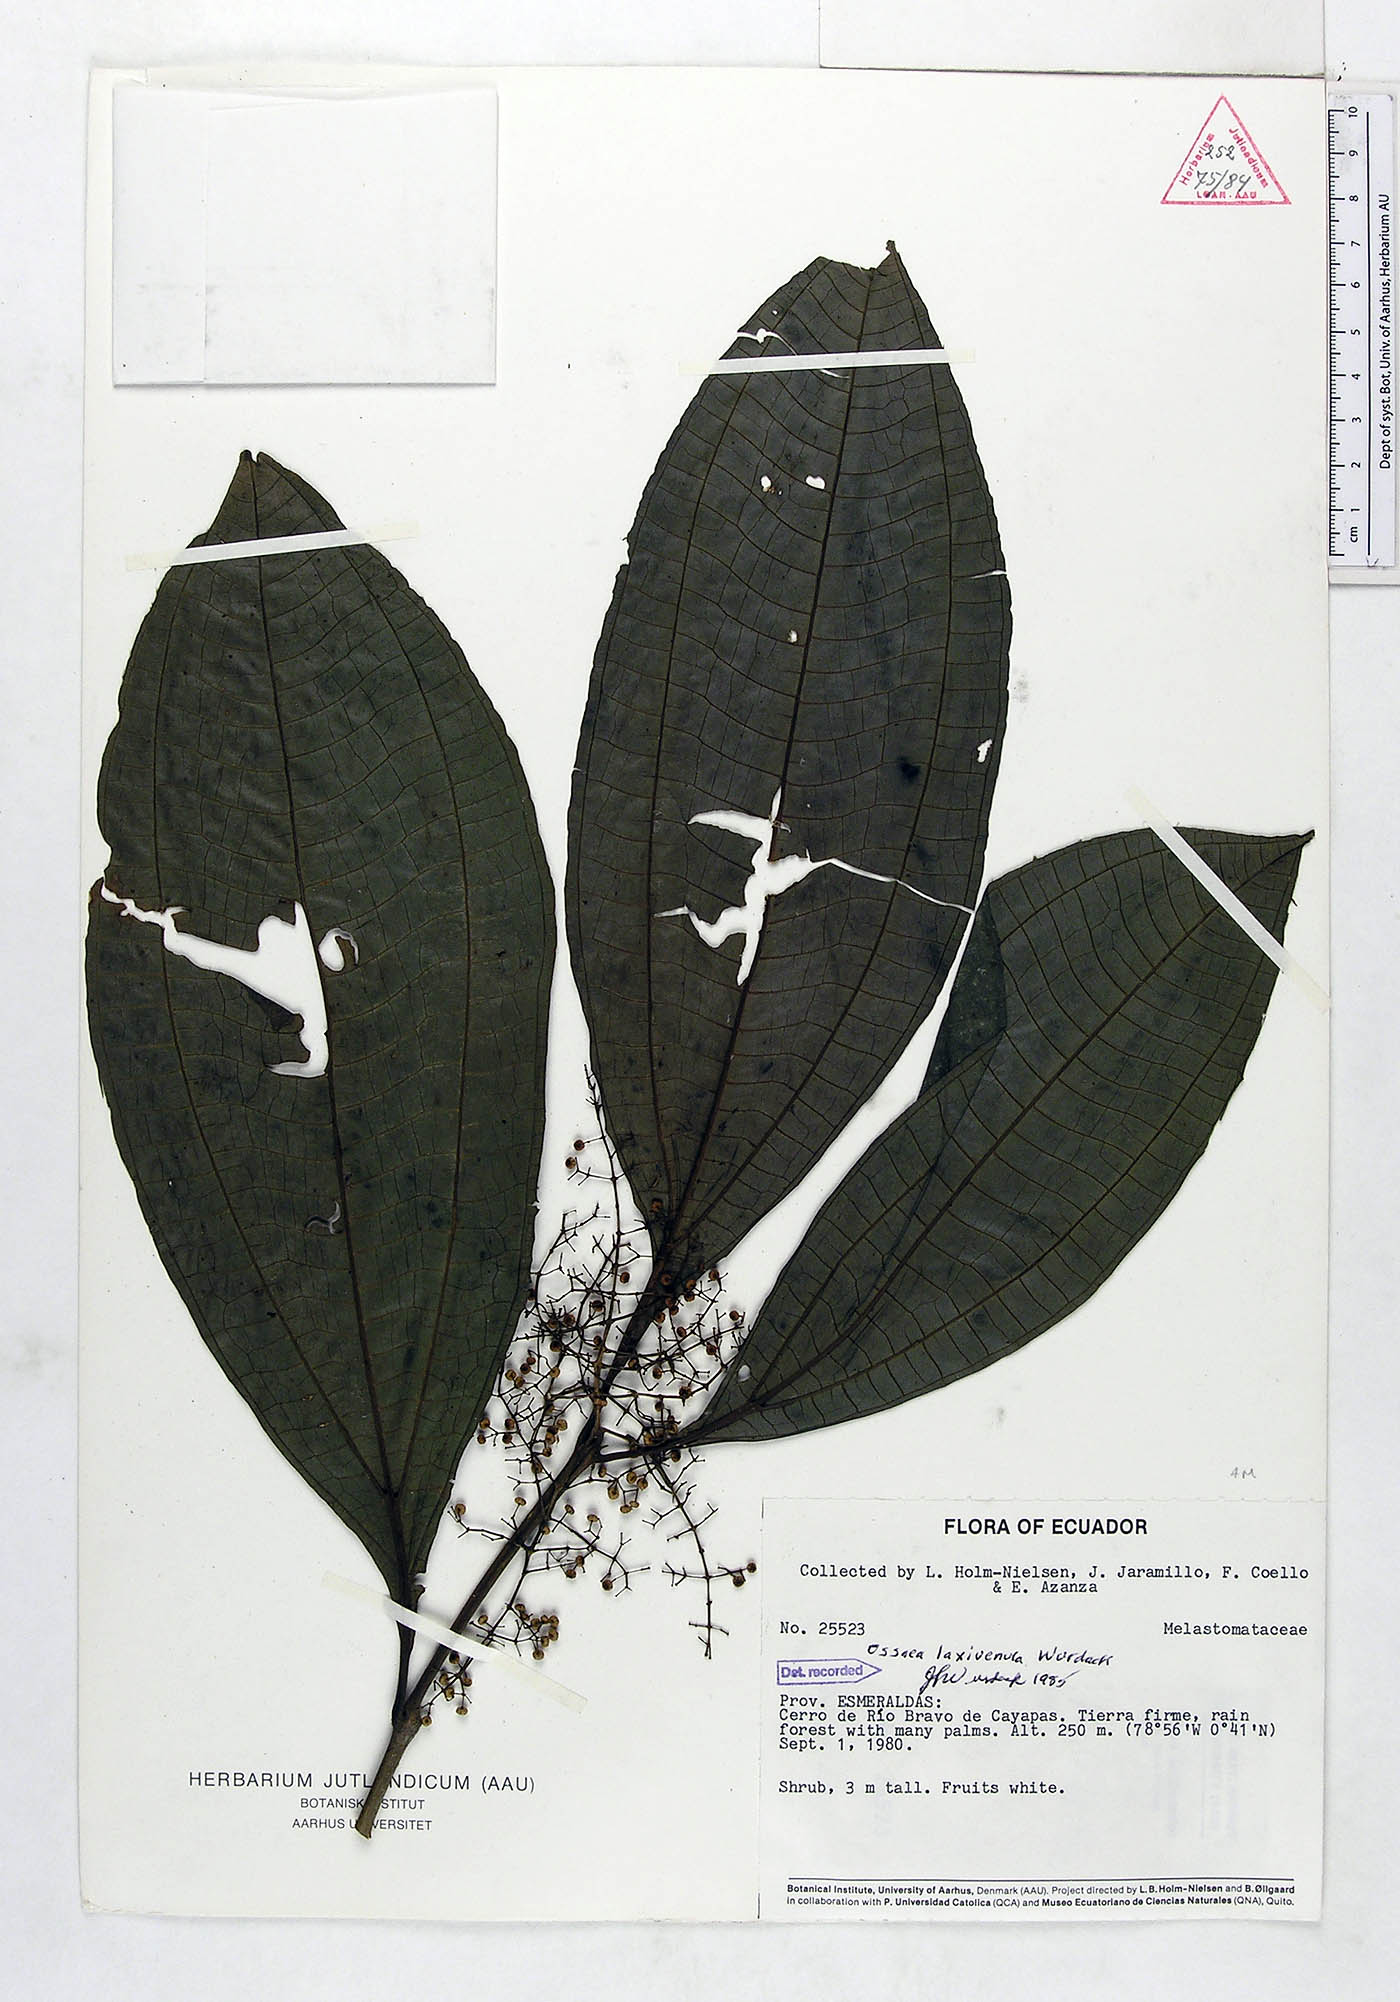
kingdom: Plantae
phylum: Tracheophyta
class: Magnoliopsida
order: Myrtales
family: Melastomataceae
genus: Miconia
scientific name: Miconia laxivenula
